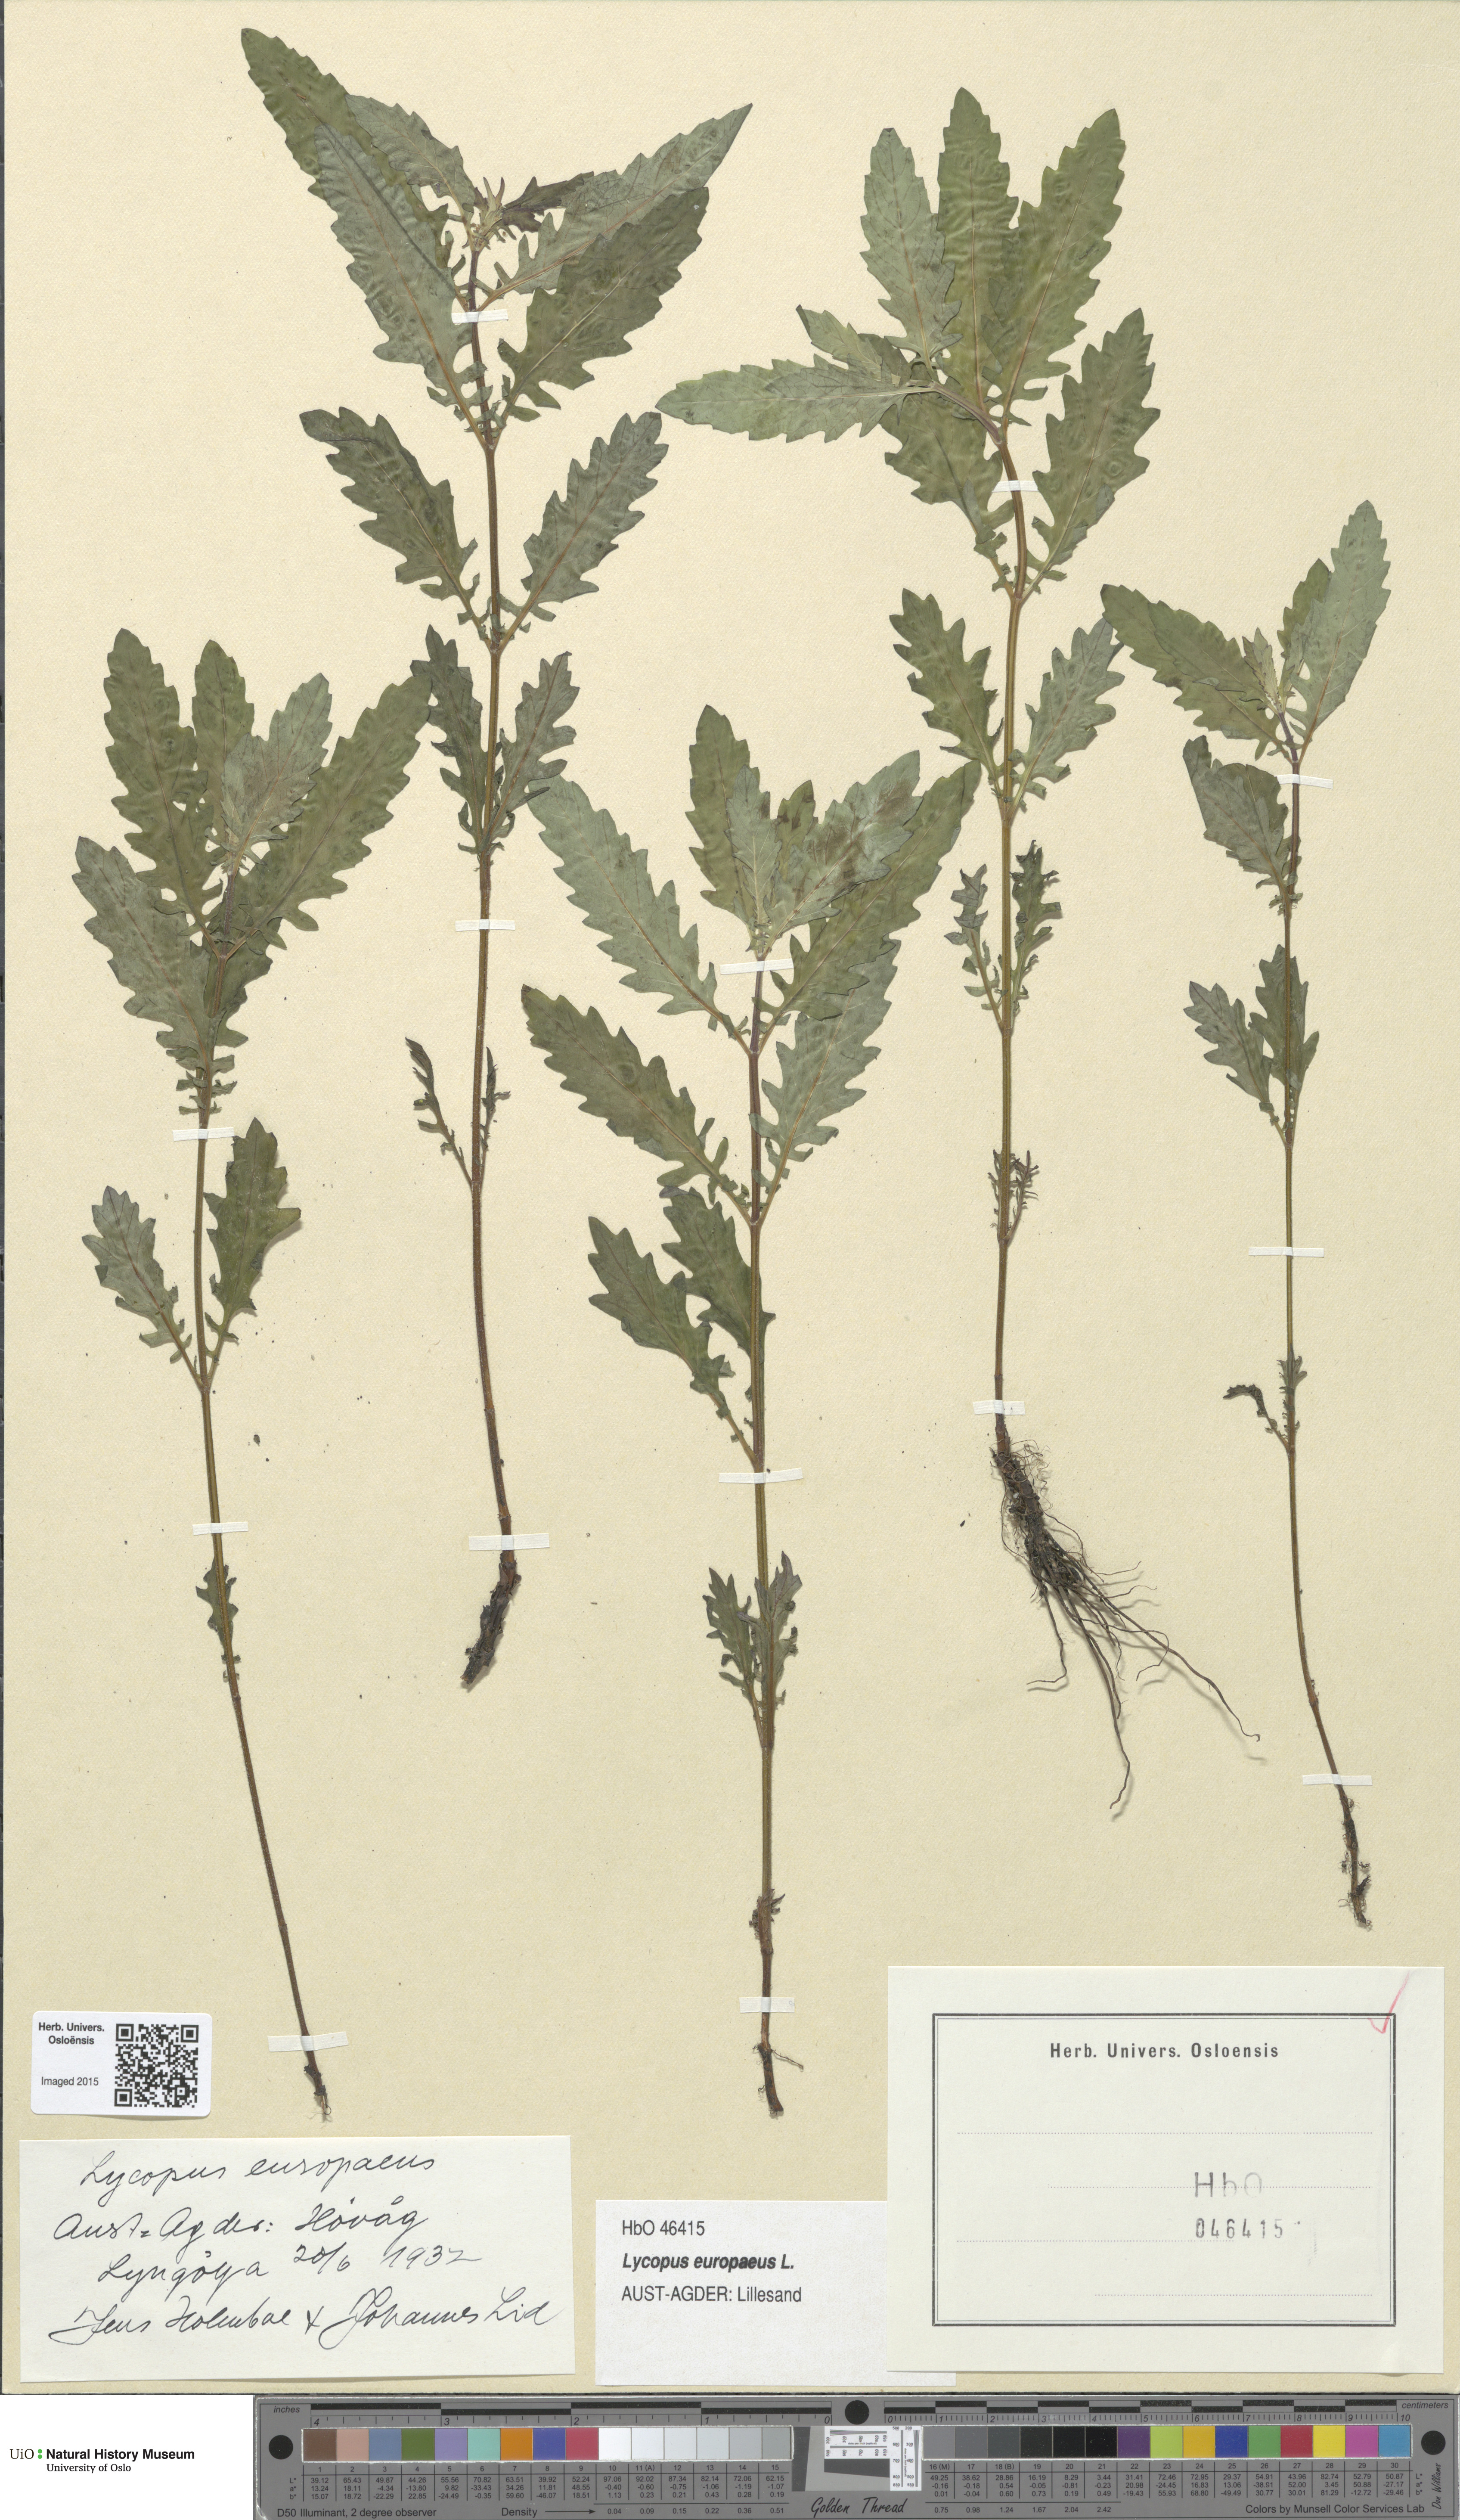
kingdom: Plantae
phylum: Tracheophyta
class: Magnoliopsida
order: Lamiales
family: Lamiaceae
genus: Lycopus
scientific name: Lycopus europaeus
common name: European bugleweed
